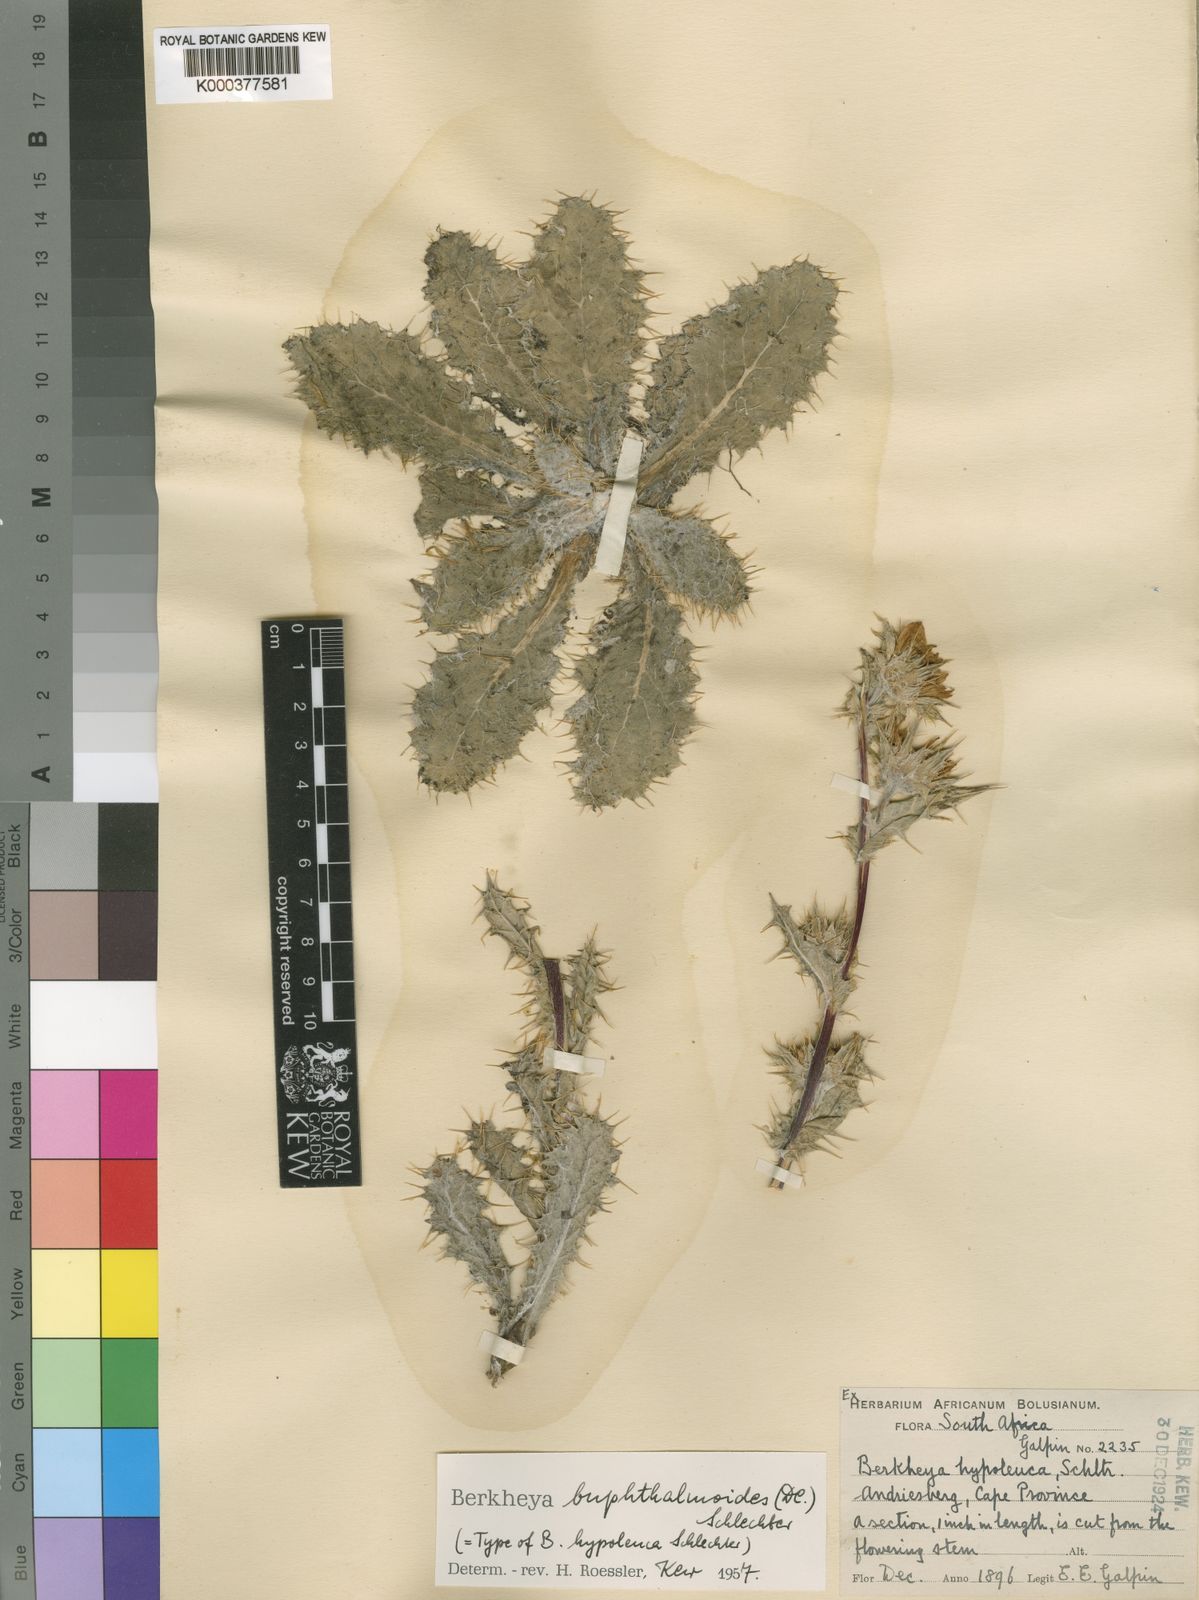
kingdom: Plantae
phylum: Tracheophyta
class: Magnoliopsida
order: Asterales
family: Asteraceae
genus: Berkheya
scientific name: Berkheya buphthalmoides
